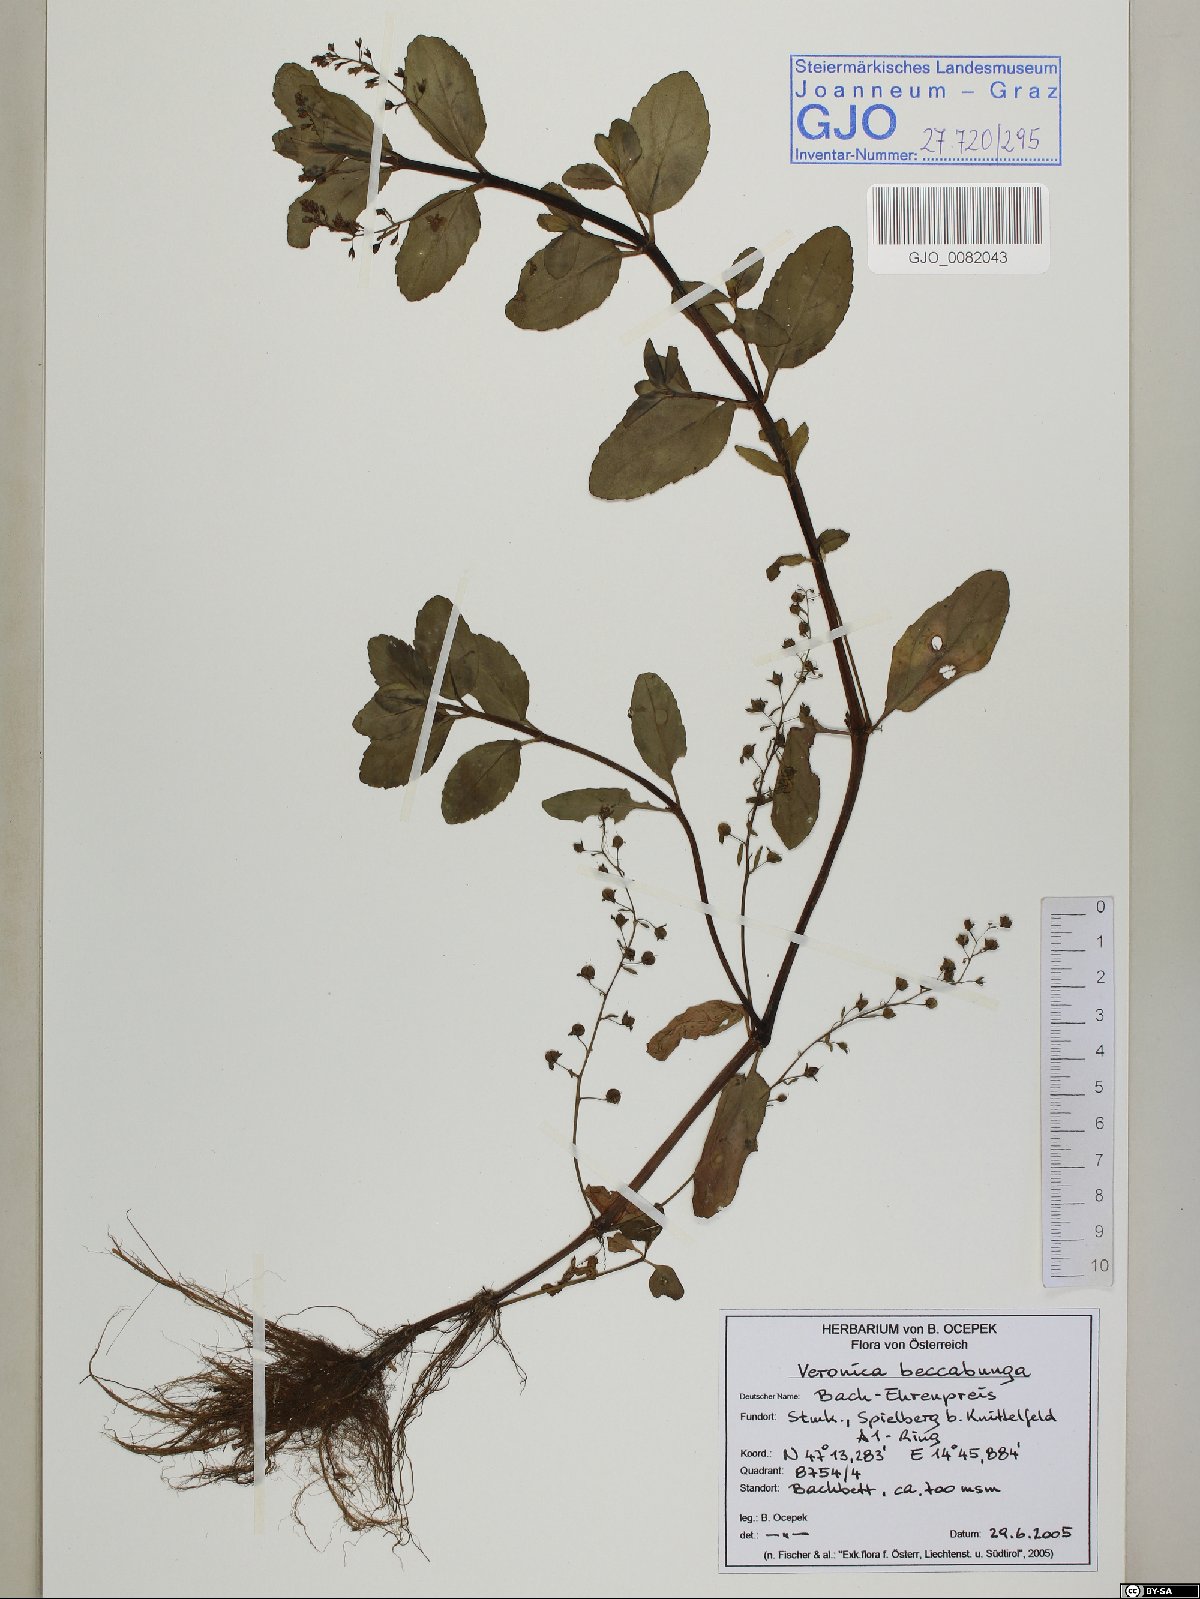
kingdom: Plantae
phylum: Tracheophyta
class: Magnoliopsida
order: Lamiales
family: Plantaginaceae
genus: Veronica
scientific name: Veronica beccabunga
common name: Brooklime
